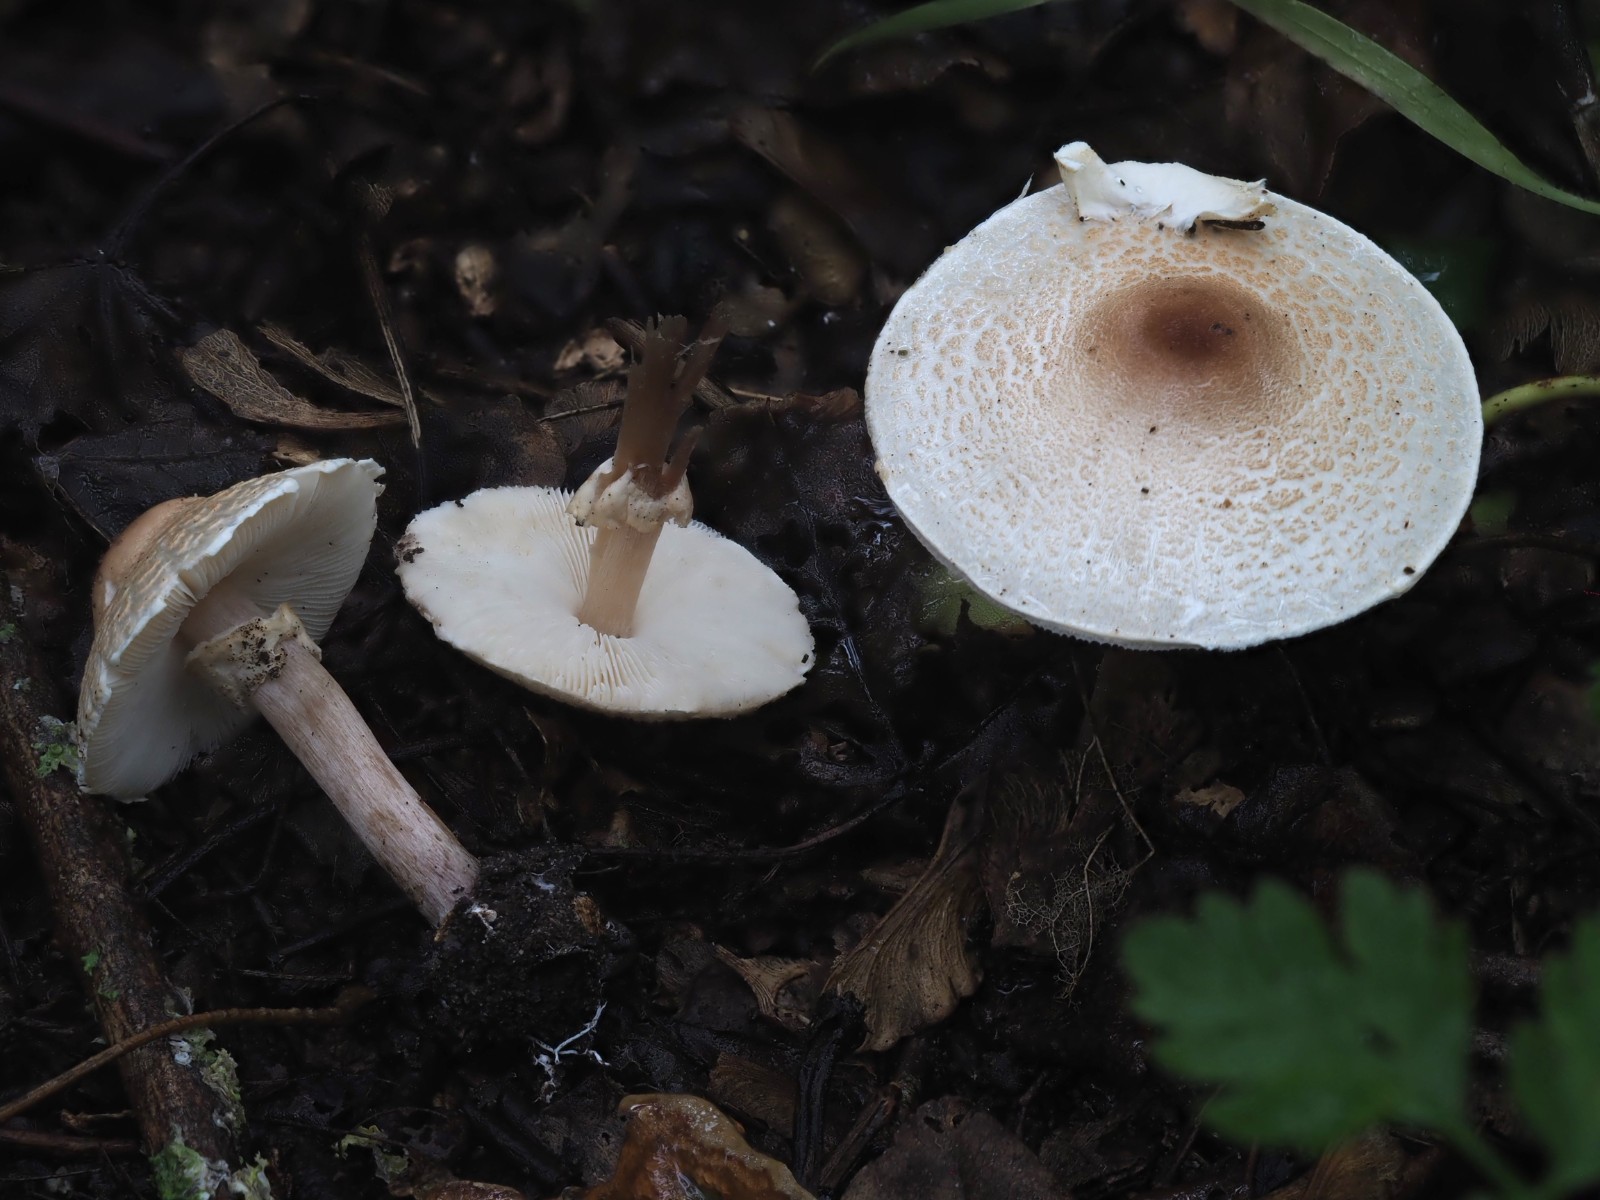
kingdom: Fungi
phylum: Basidiomycota
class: Agaricomycetes
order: Agaricales
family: Agaricaceae
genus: Lepiota
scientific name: Lepiota cristata
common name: stinkende parasolhat
